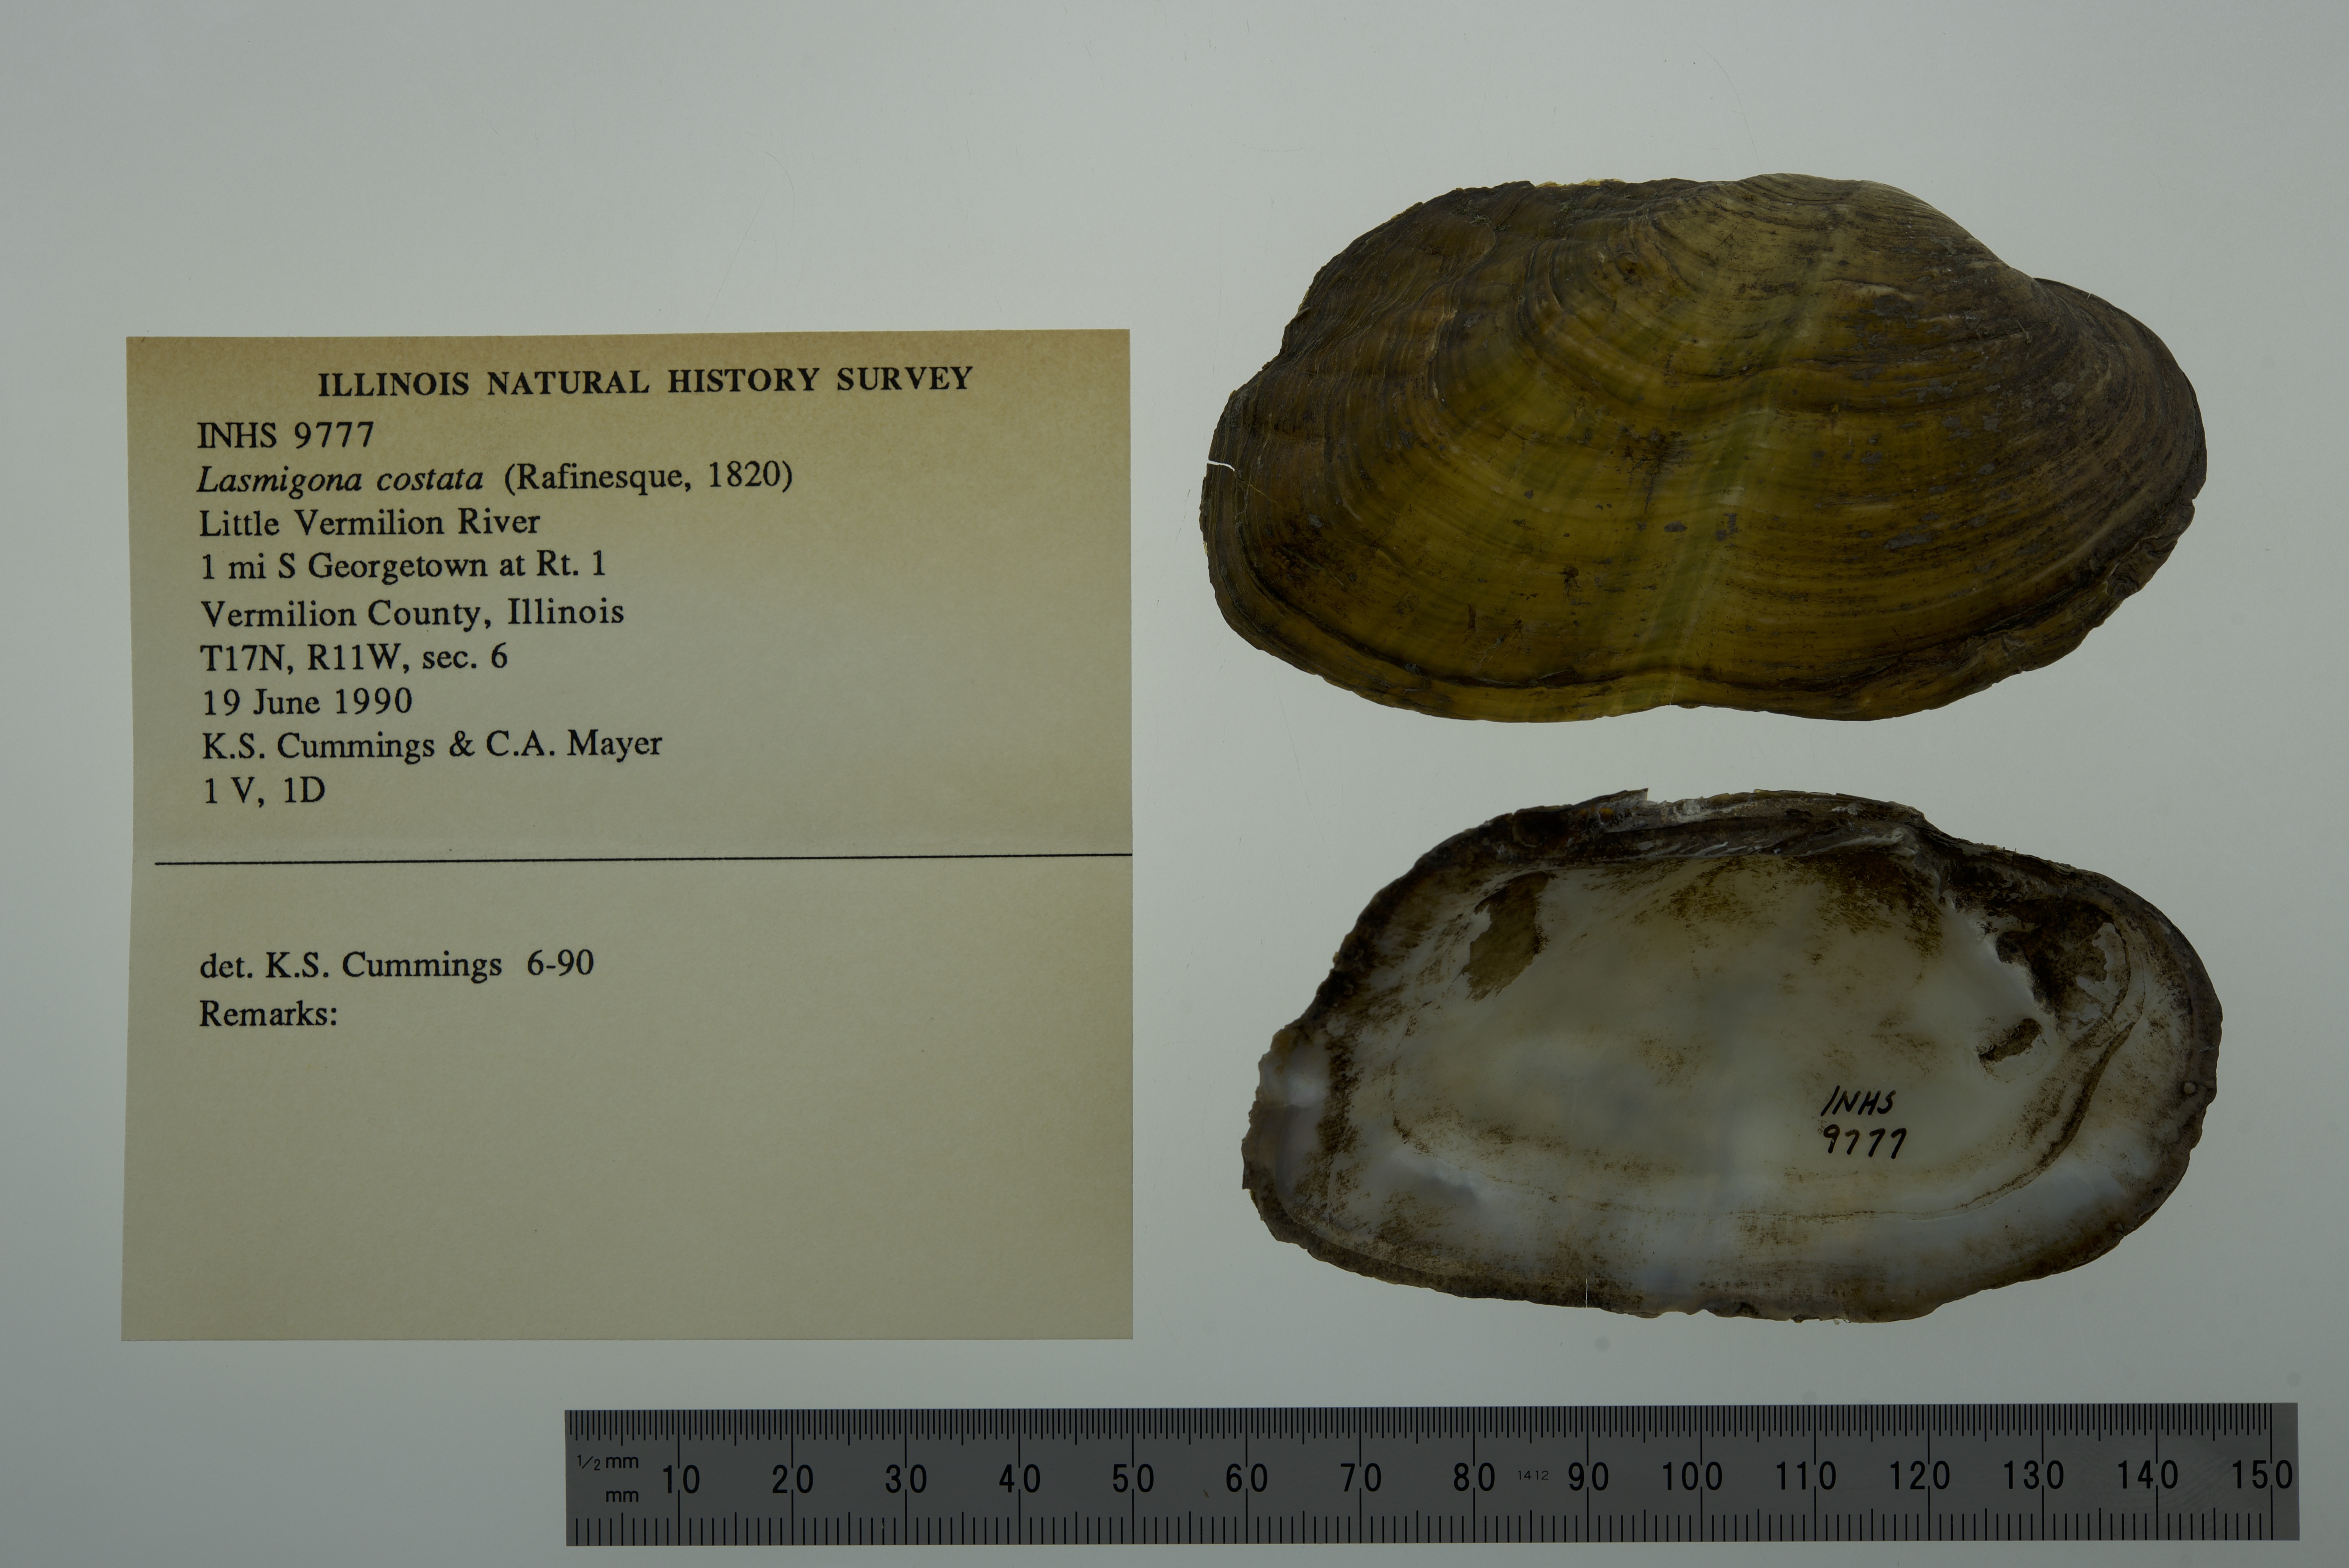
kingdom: Animalia
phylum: Mollusca
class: Bivalvia
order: Unionida
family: Unionidae
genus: Lasmigona
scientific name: Lasmigona costata
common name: Flutedshell
